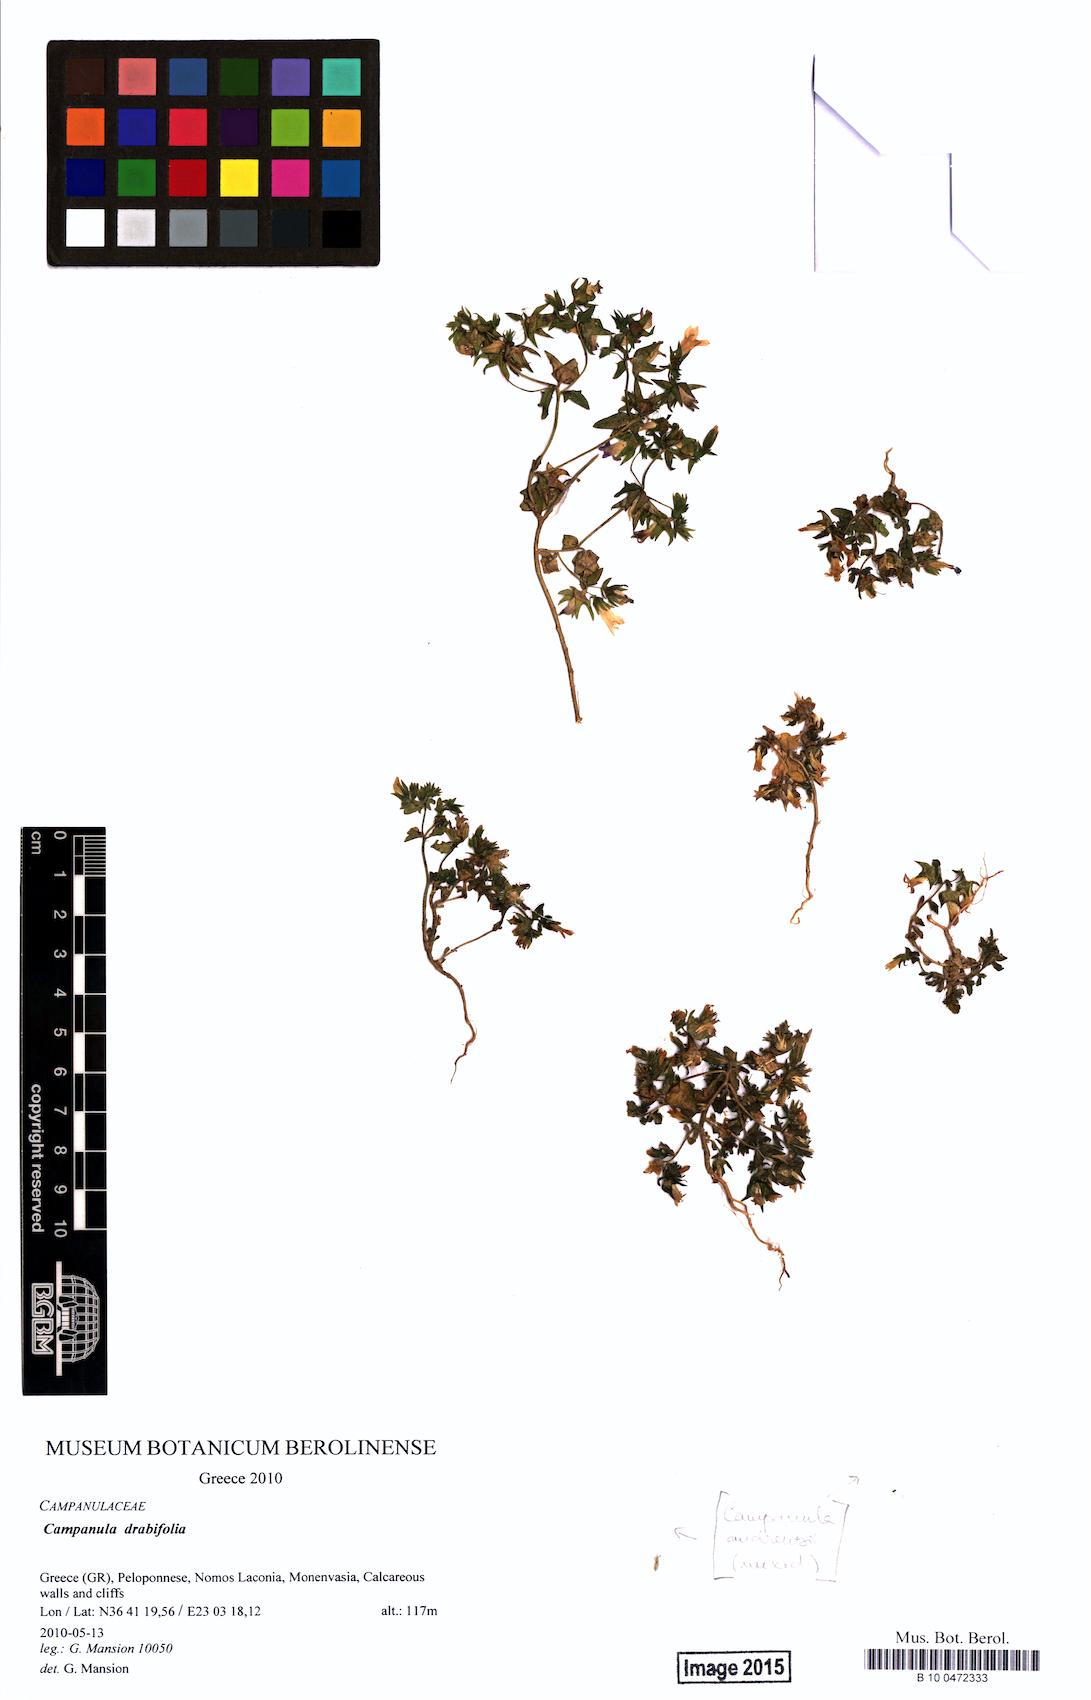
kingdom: Plantae
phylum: Tracheophyta
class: Magnoliopsida
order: Asterales
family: Campanulaceae
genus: Campanula
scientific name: Campanula drabifolia
